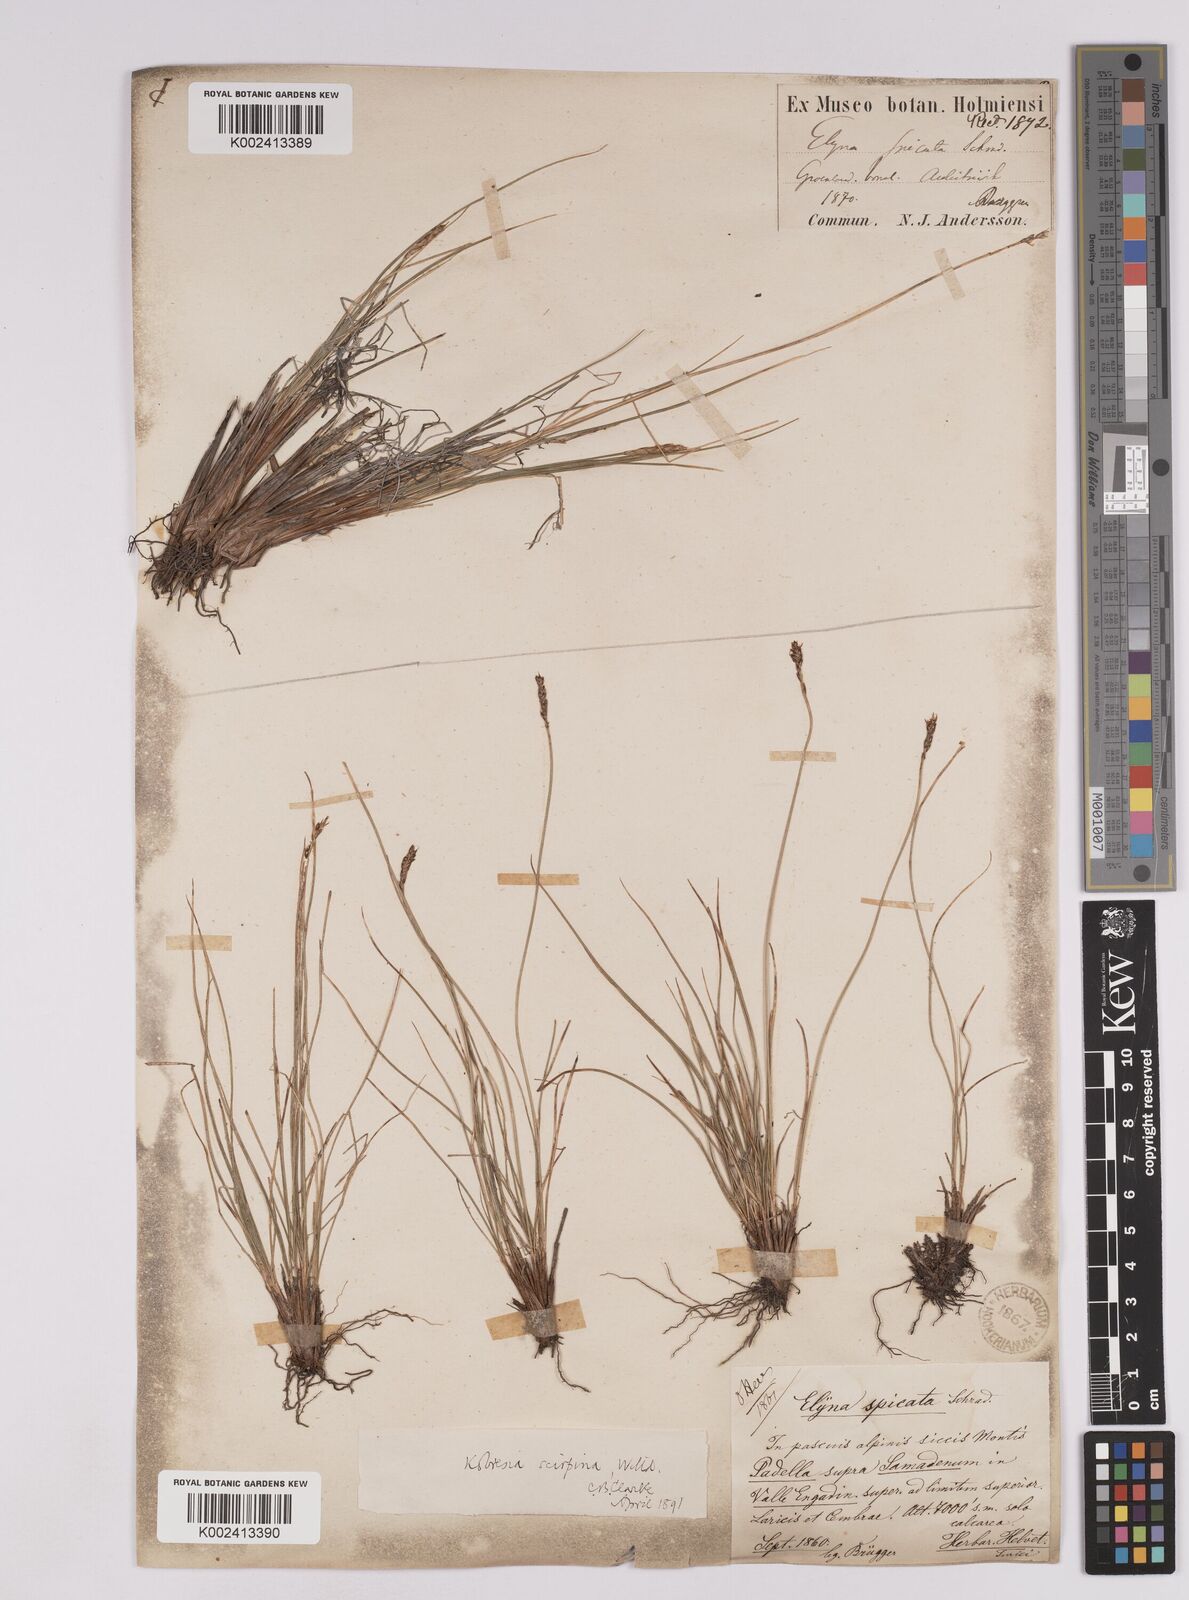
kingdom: Plantae
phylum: Tracheophyta
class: Liliopsida
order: Poales
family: Cyperaceae
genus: Carex
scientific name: Carex myosuroides
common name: Bellard's bog sedge
